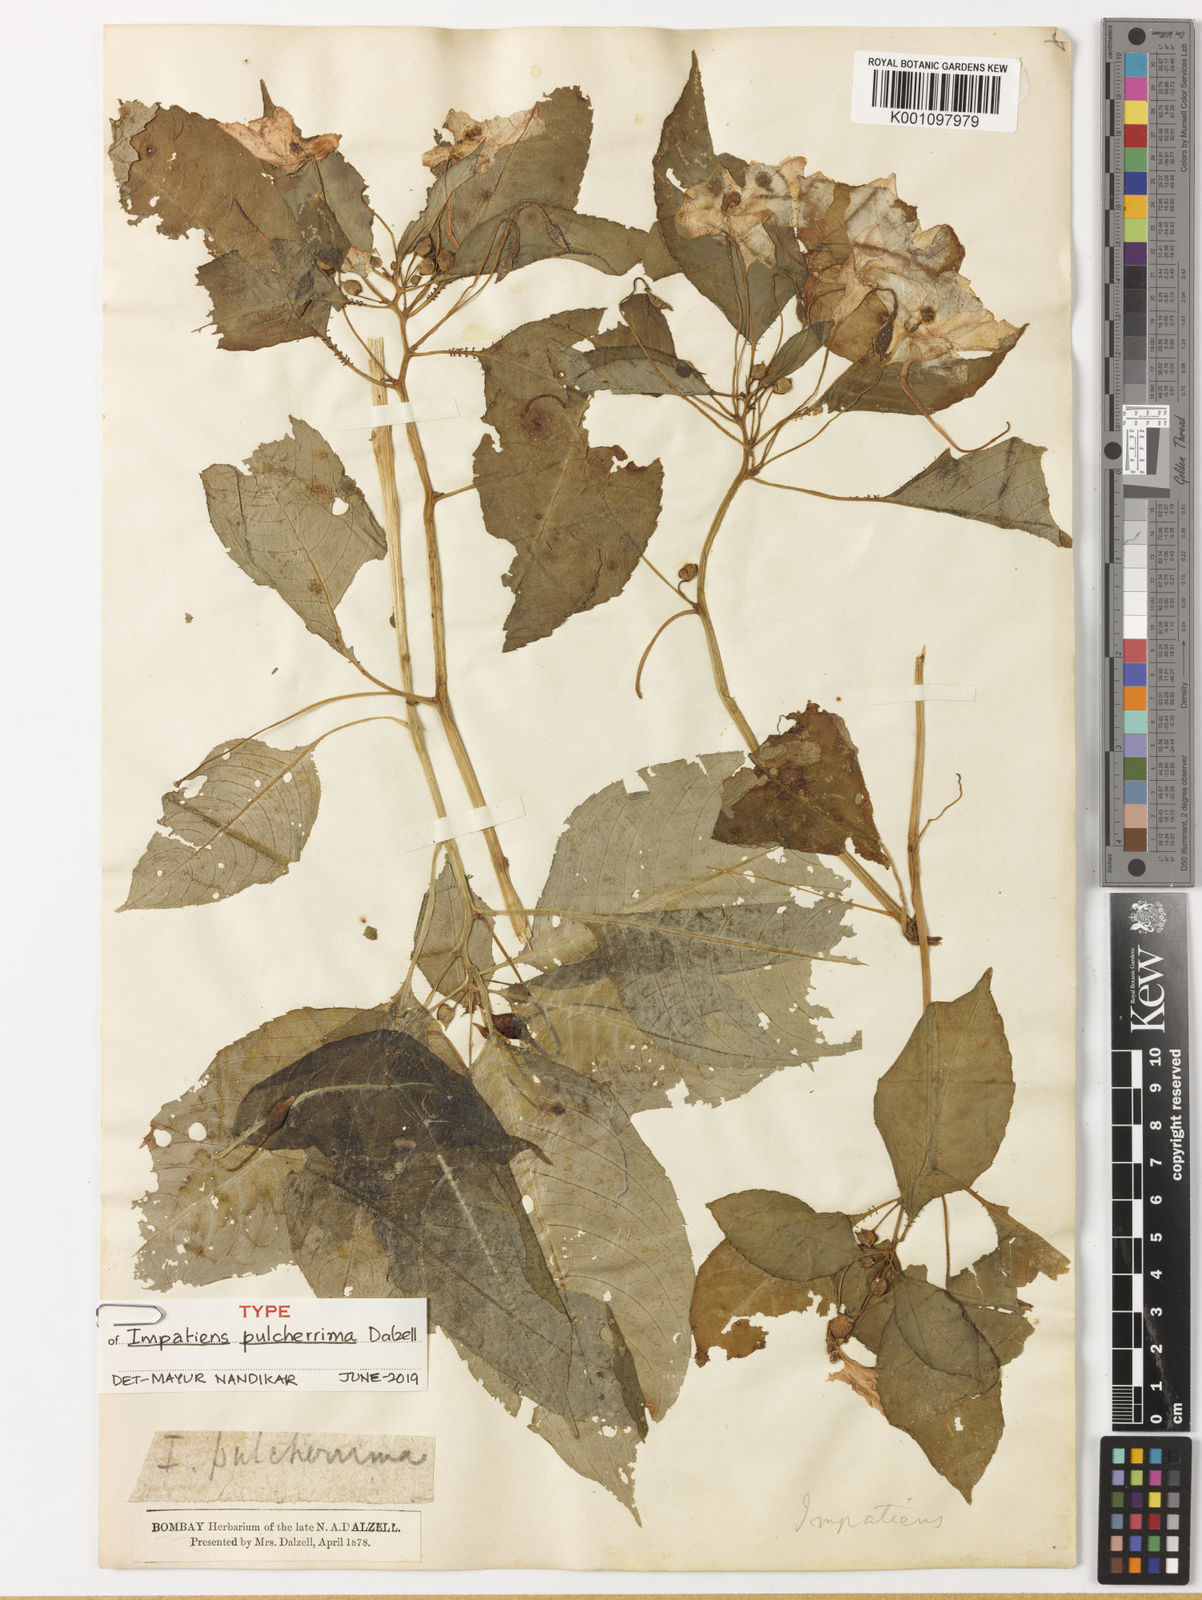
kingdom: Plantae
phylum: Tracheophyta
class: Magnoliopsida
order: Ericales
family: Balsaminaceae
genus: Impatiens
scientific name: Impatiens pulcherrima
